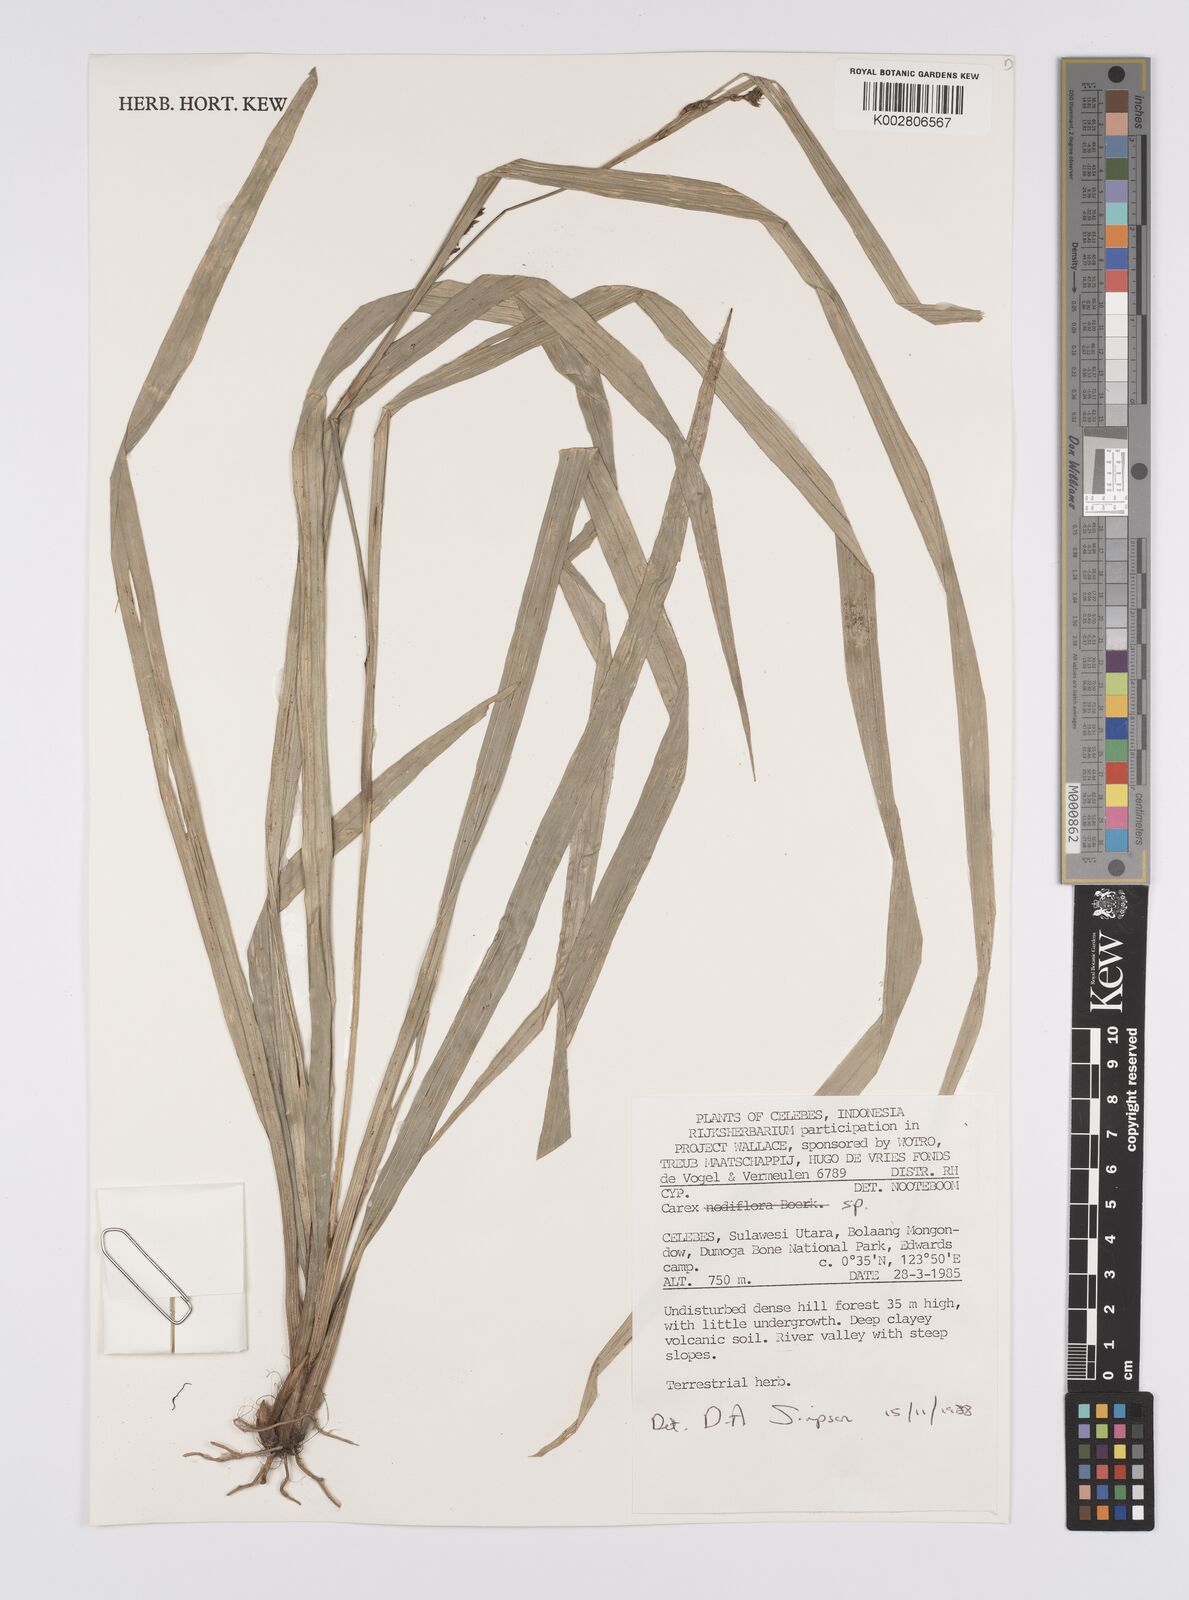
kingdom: Plantae
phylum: Tracheophyta
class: Liliopsida
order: Poales
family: Cyperaceae
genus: Carex
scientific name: Carex
